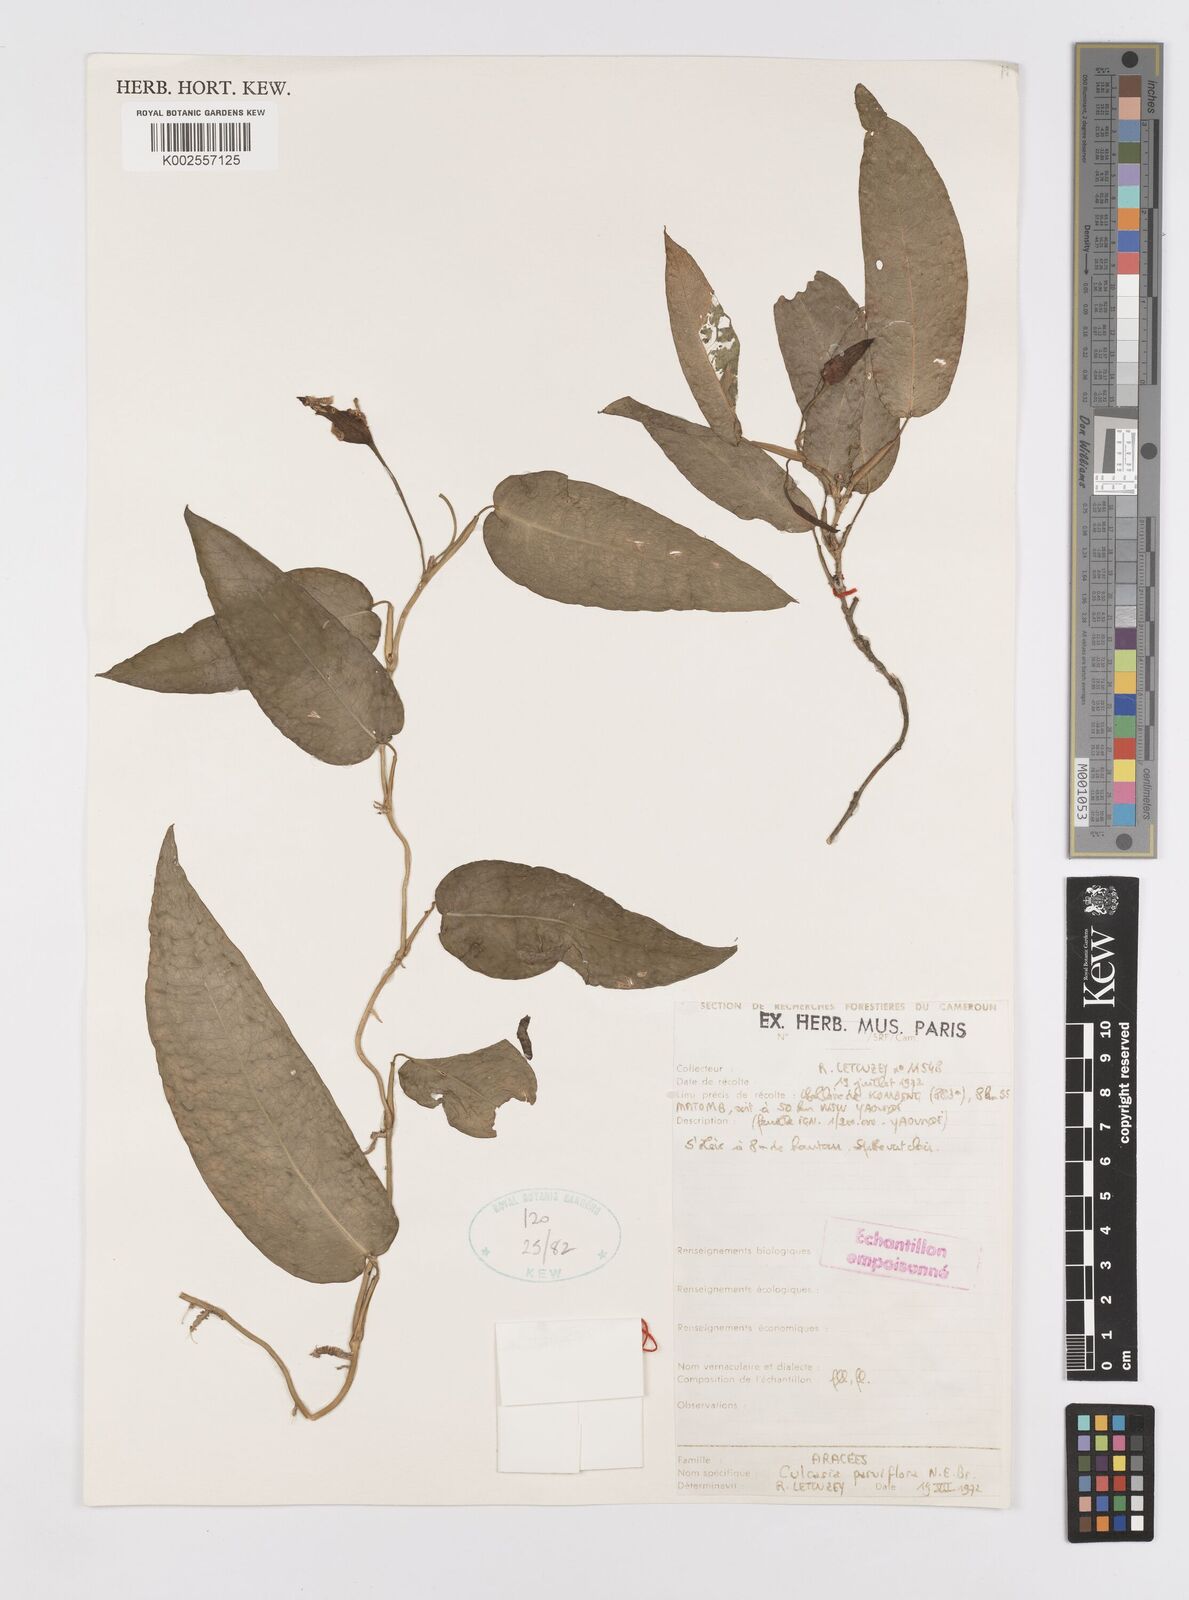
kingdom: Plantae
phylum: Tracheophyta
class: Liliopsida
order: Alismatales
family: Araceae
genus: Culcasia
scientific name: Culcasia parviflora
